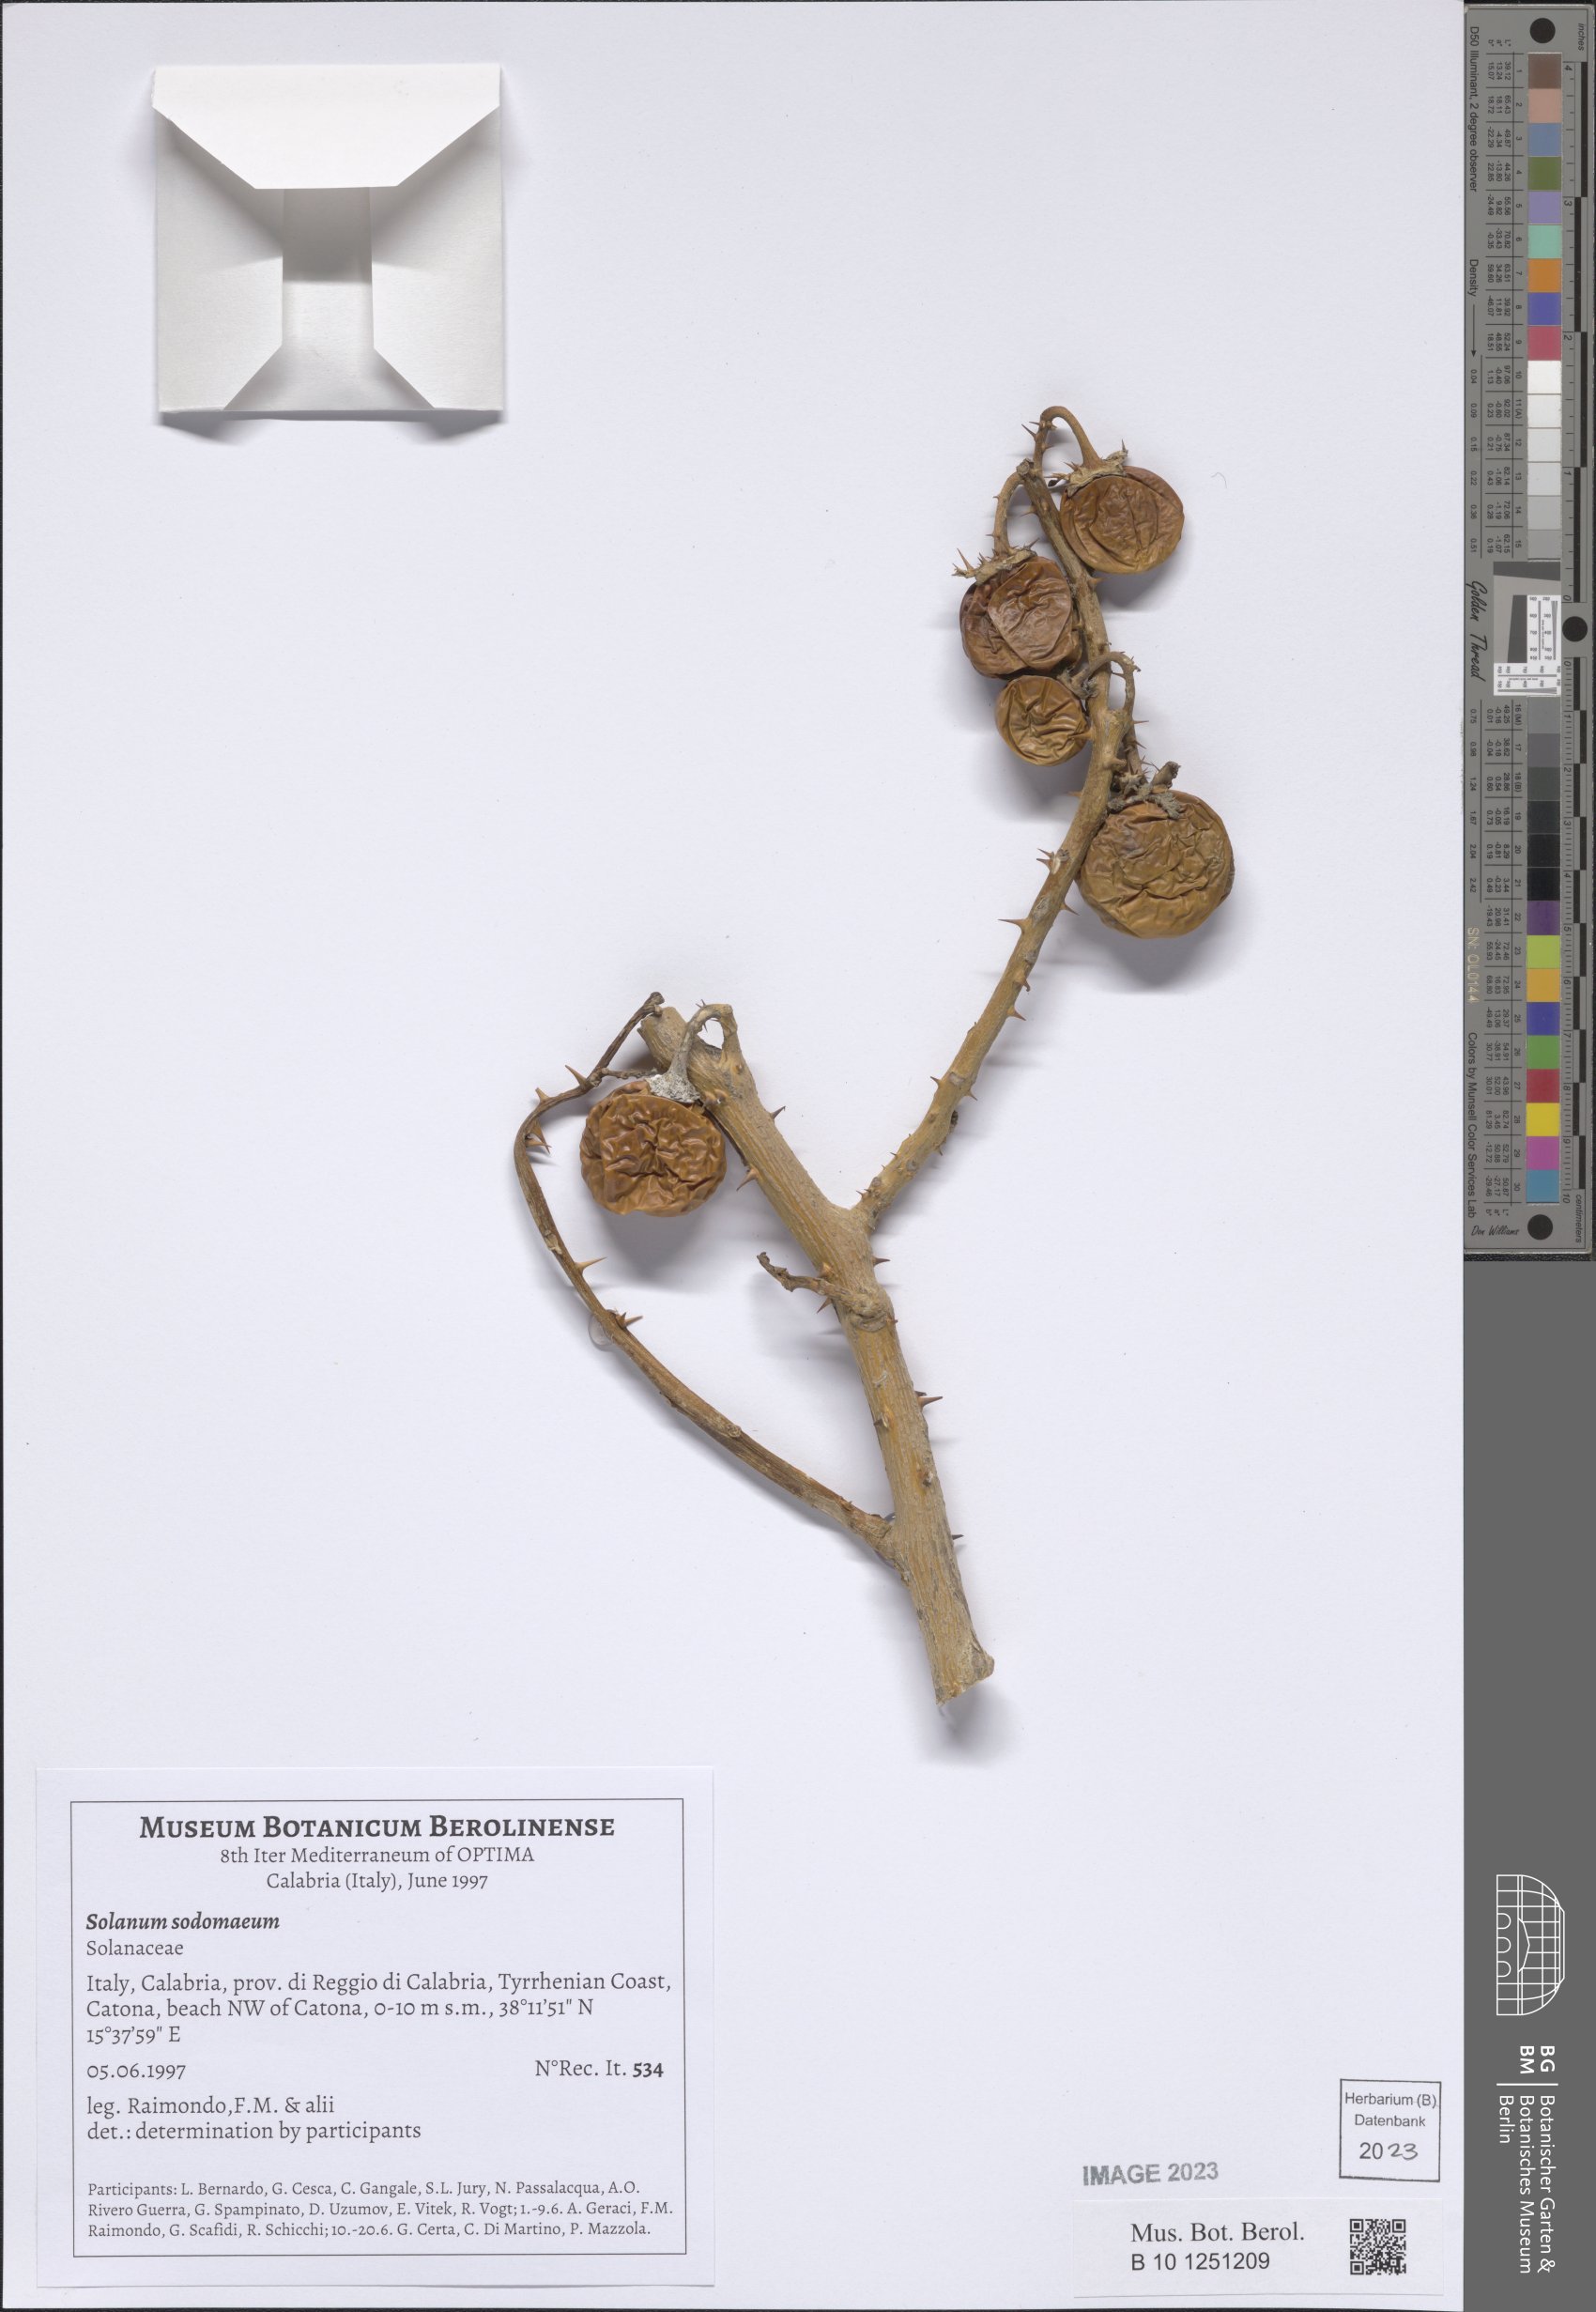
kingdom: Plantae
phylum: Tracheophyta
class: Magnoliopsida
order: Solanales
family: Solanaceae
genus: Solanum
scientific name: Solanum aculeastrum
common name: Goat bitter-apple
